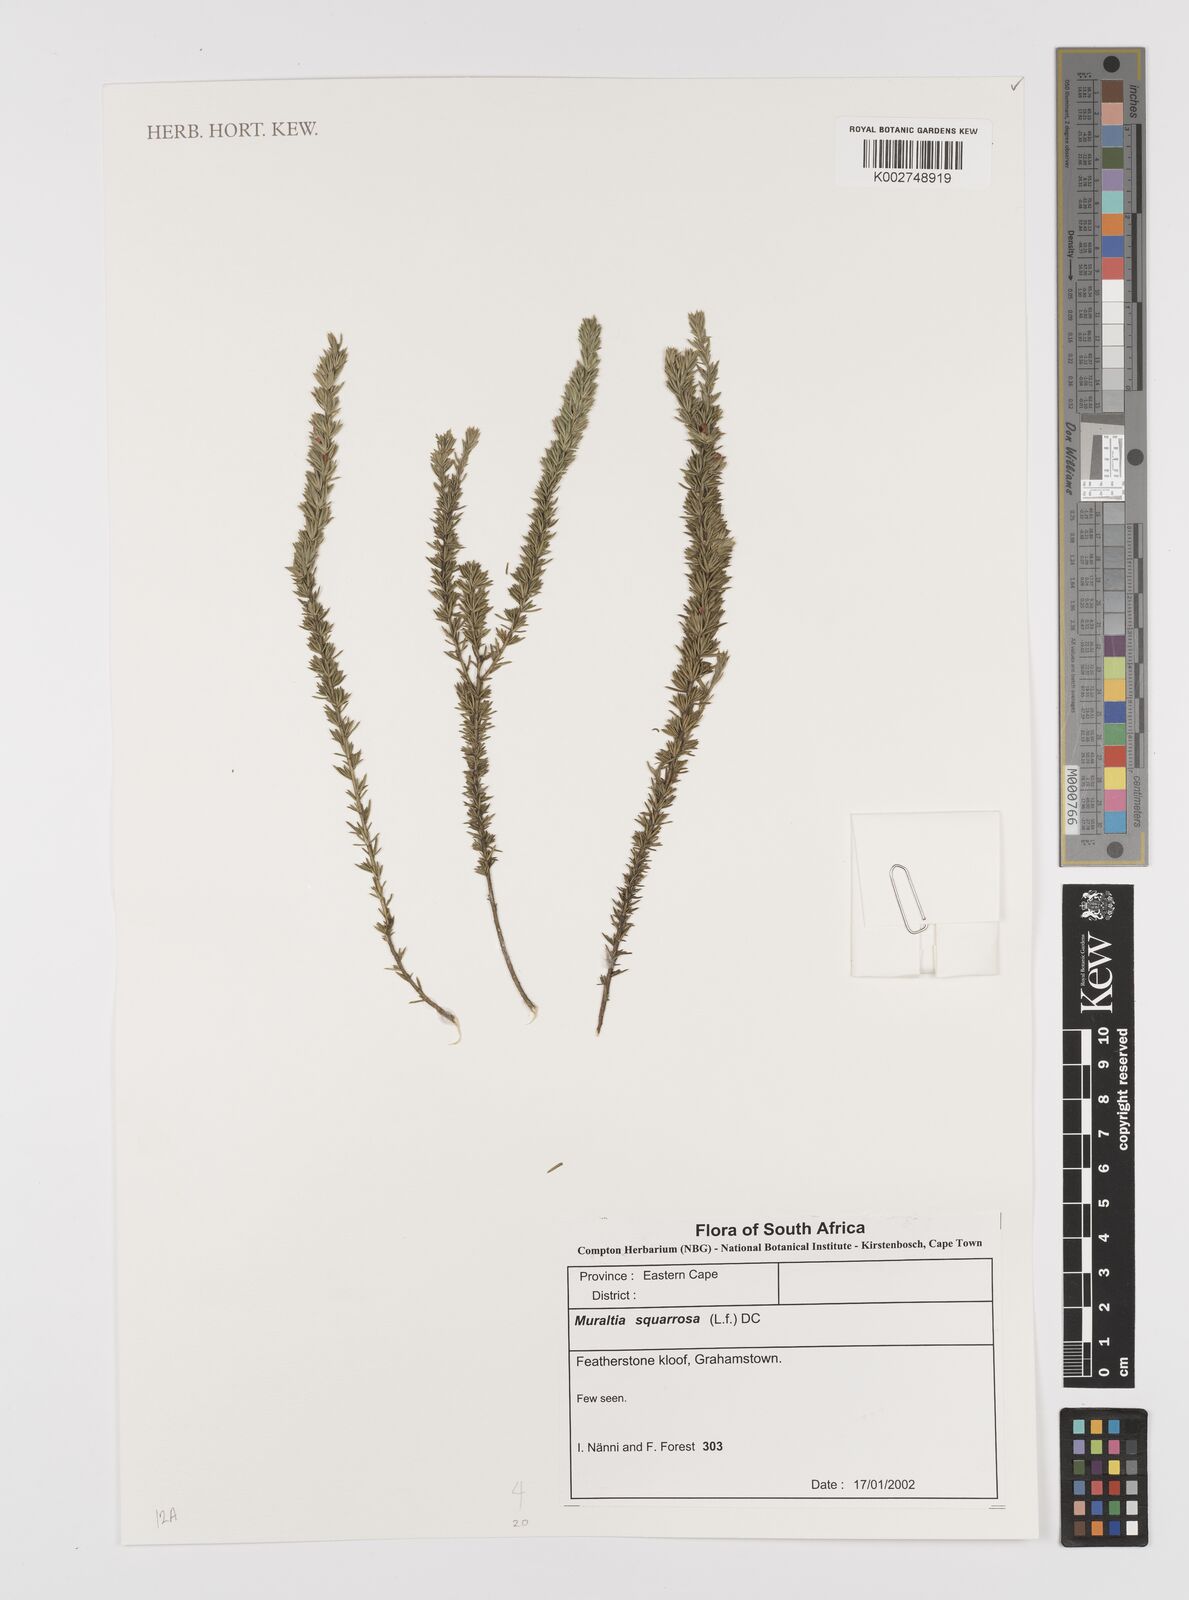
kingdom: Plantae
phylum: Tracheophyta
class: Magnoliopsida
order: Fabales
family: Polygalaceae
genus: Muraltia
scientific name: Muraltia squarrosa
